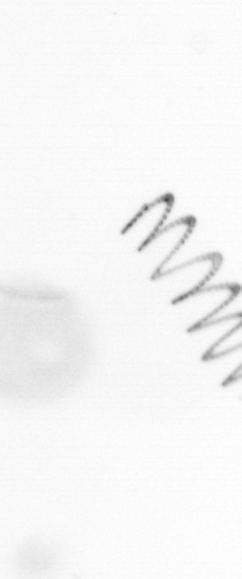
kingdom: Chromista
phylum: Ochrophyta
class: Bacillariophyceae
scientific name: Bacillariophyceae
